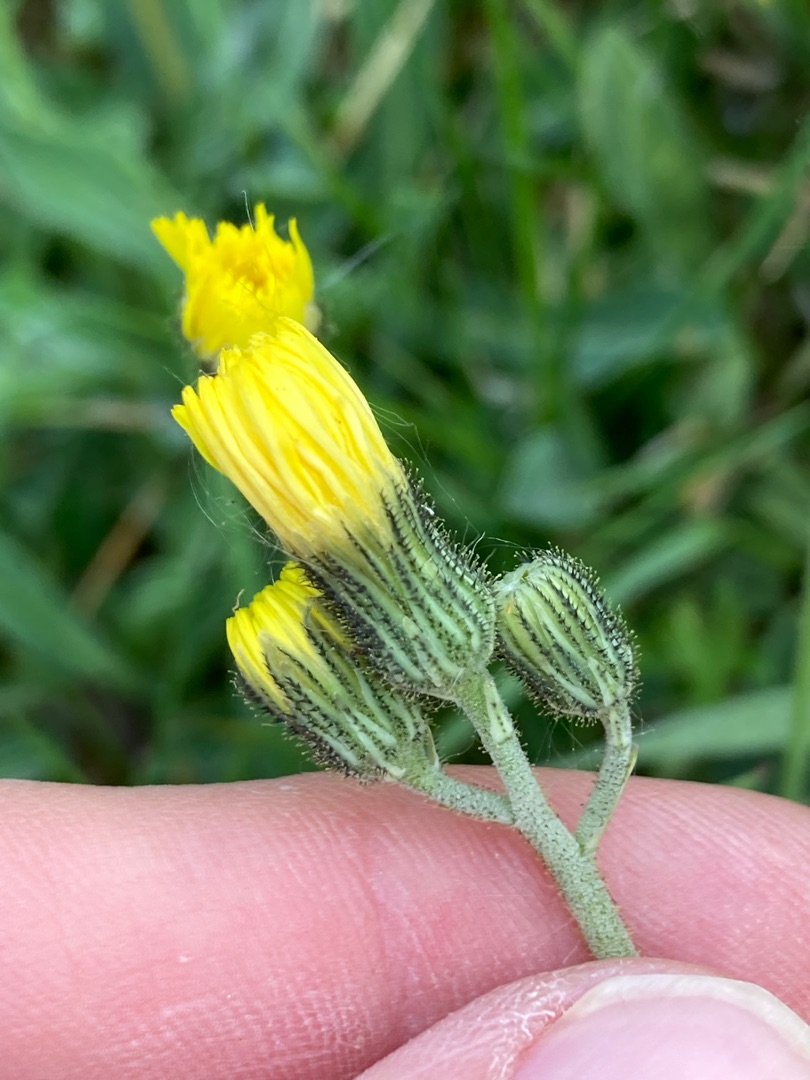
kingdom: Plantae
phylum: Tracheophyta
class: Magnoliopsida
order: Asterales
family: Asteraceae
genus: Pilosella
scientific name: Pilosella lactucella
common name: Lancetbladet høgeurt
